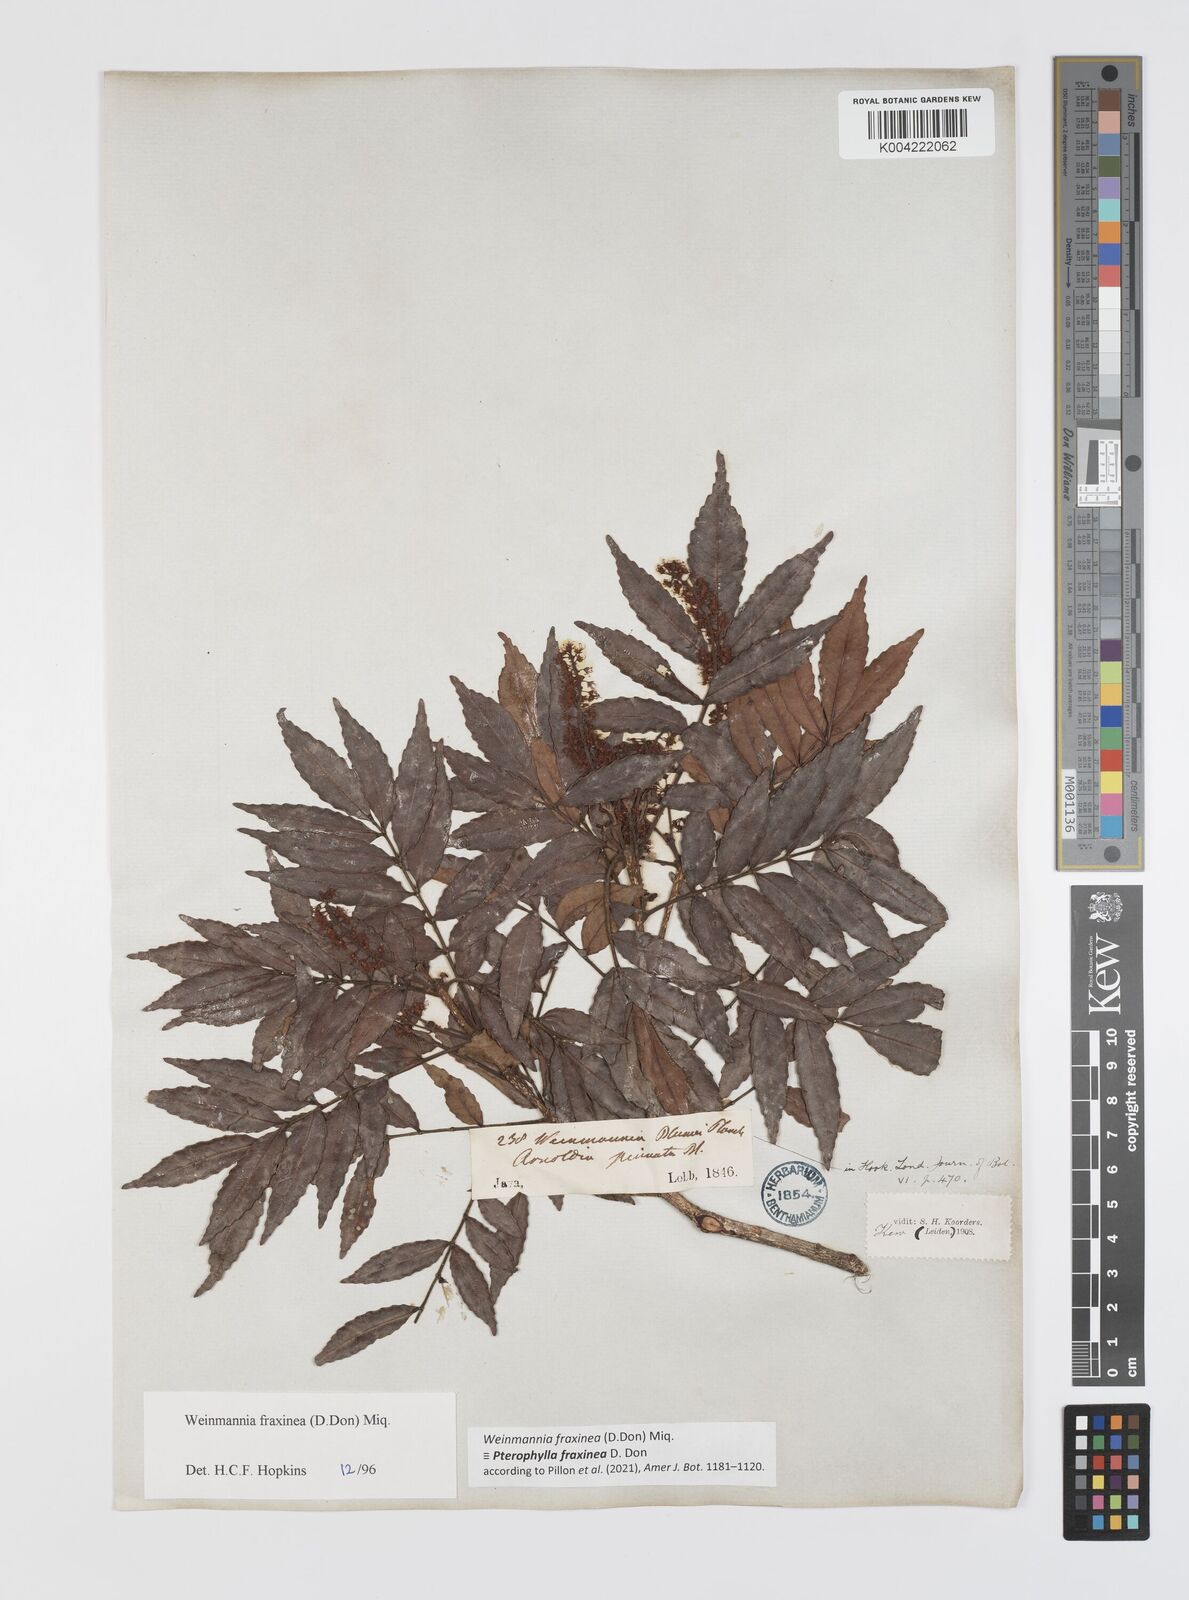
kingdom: Plantae
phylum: Tracheophyta
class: Magnoliopsida
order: Oxalidales
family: Cunoniaceae
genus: Pterophylla
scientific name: Pterophylla fraxinea
